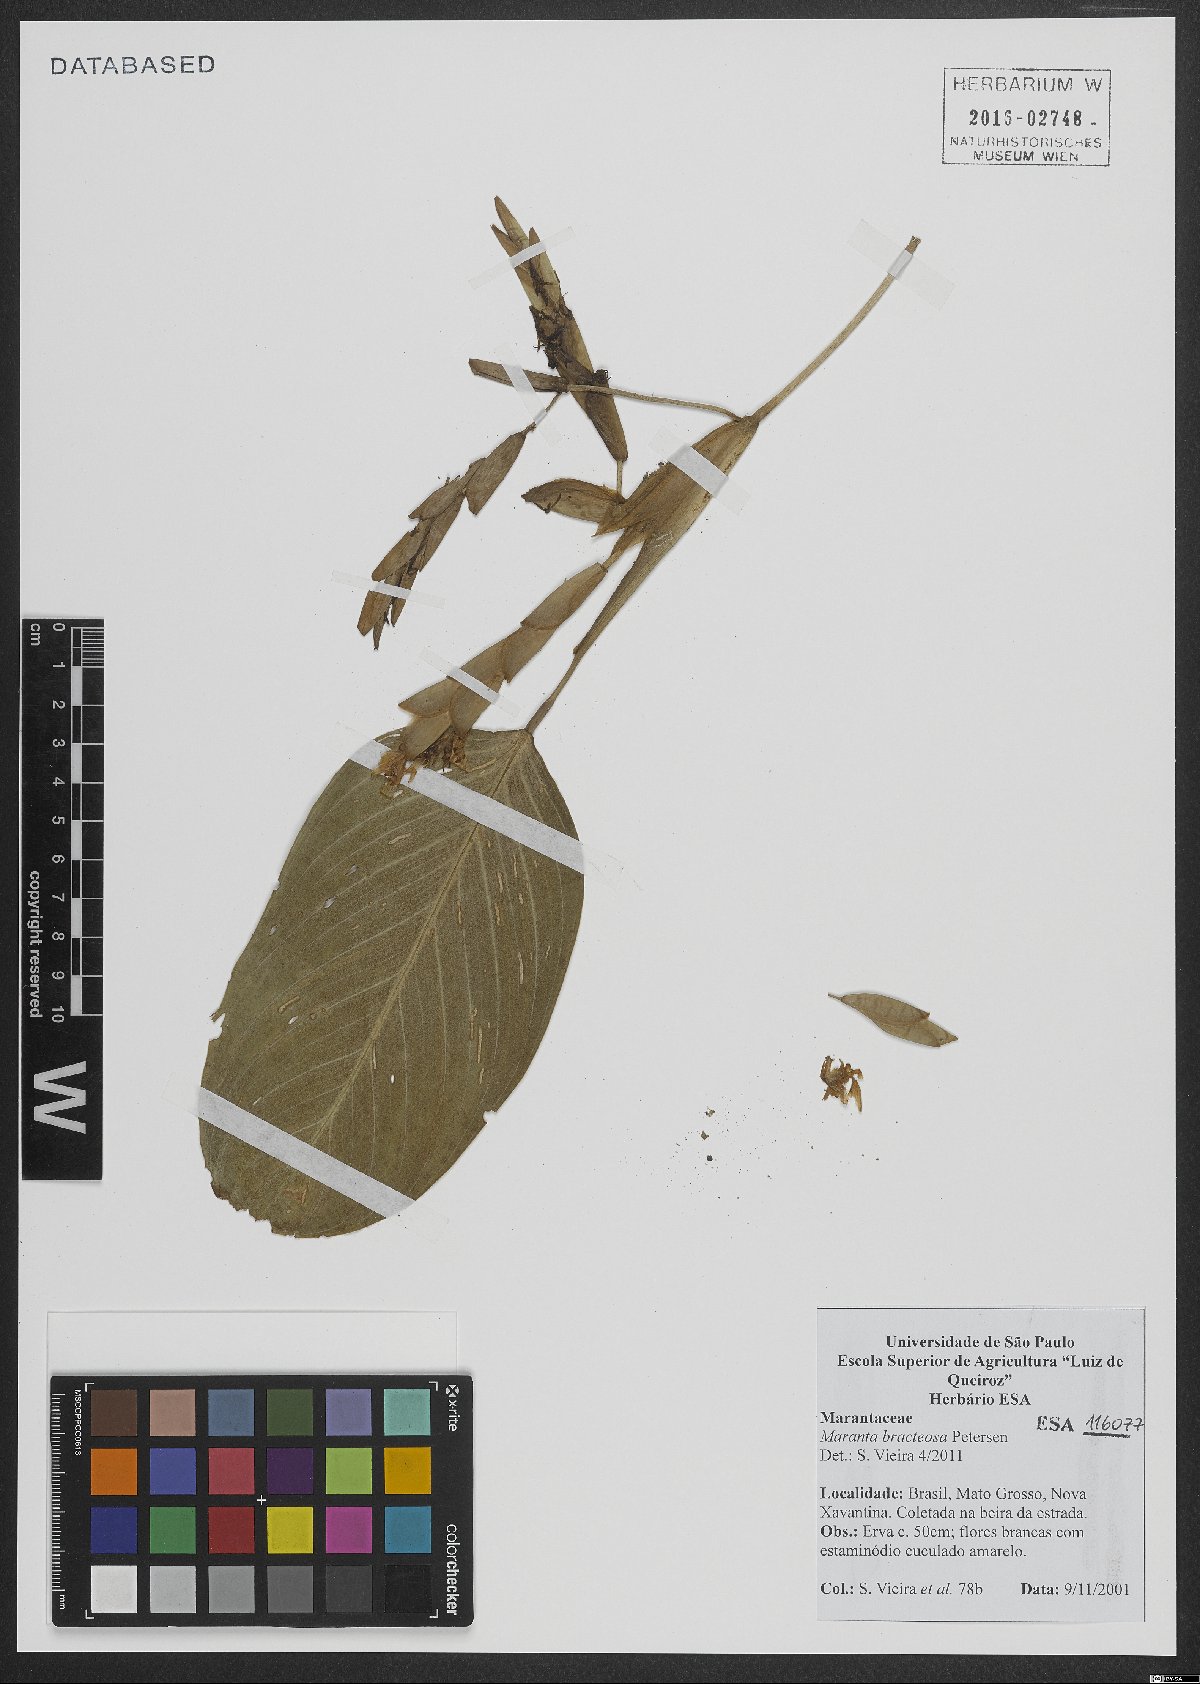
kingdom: Plantae
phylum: Tracheophyta
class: Liliopsida
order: Zingiberales
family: Marantaceae
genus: Maranta
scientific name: Maranta bracteosa
